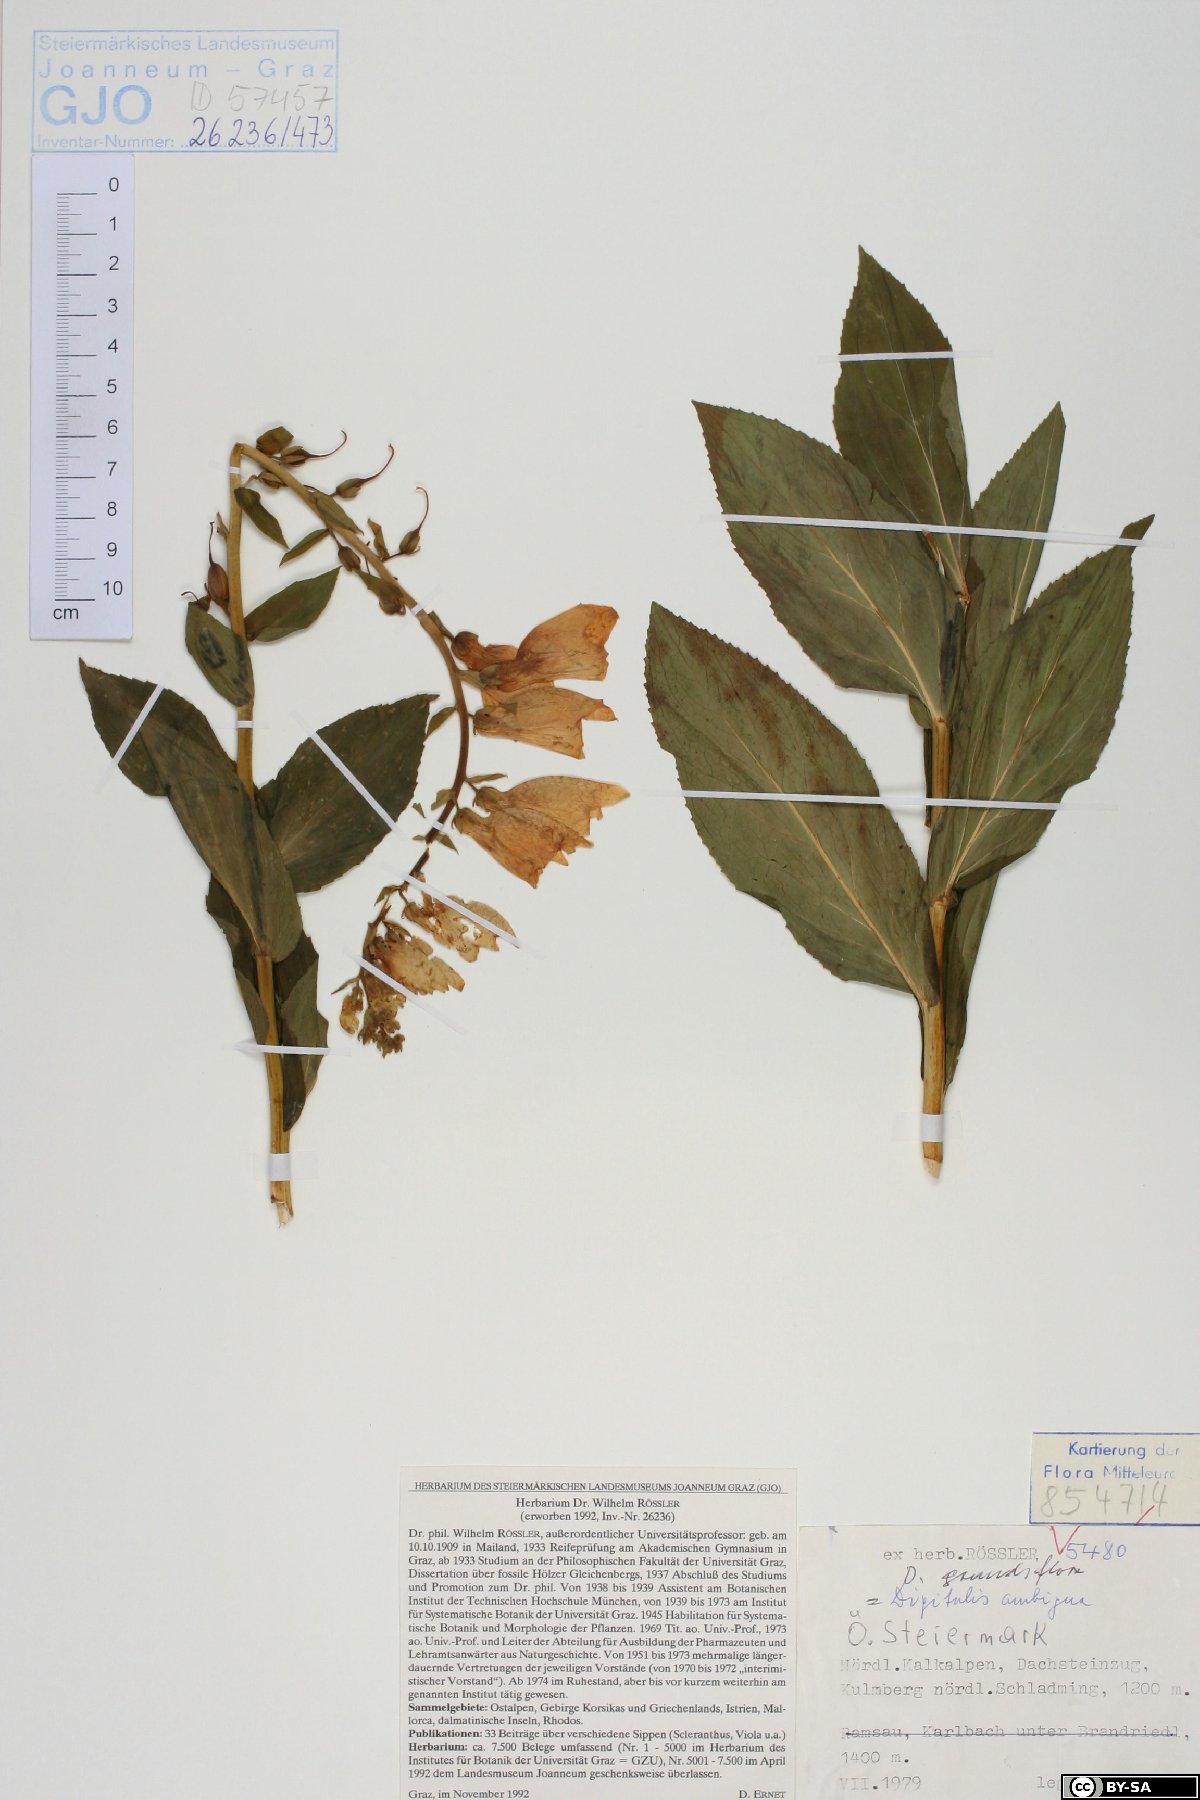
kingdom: Plantae
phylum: Tracheophyta
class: Magnoliopsida
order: Lamiales
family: Plantaginaceae
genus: Digitalis
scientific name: Digitalis grandiflora
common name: Yellow foxglove
